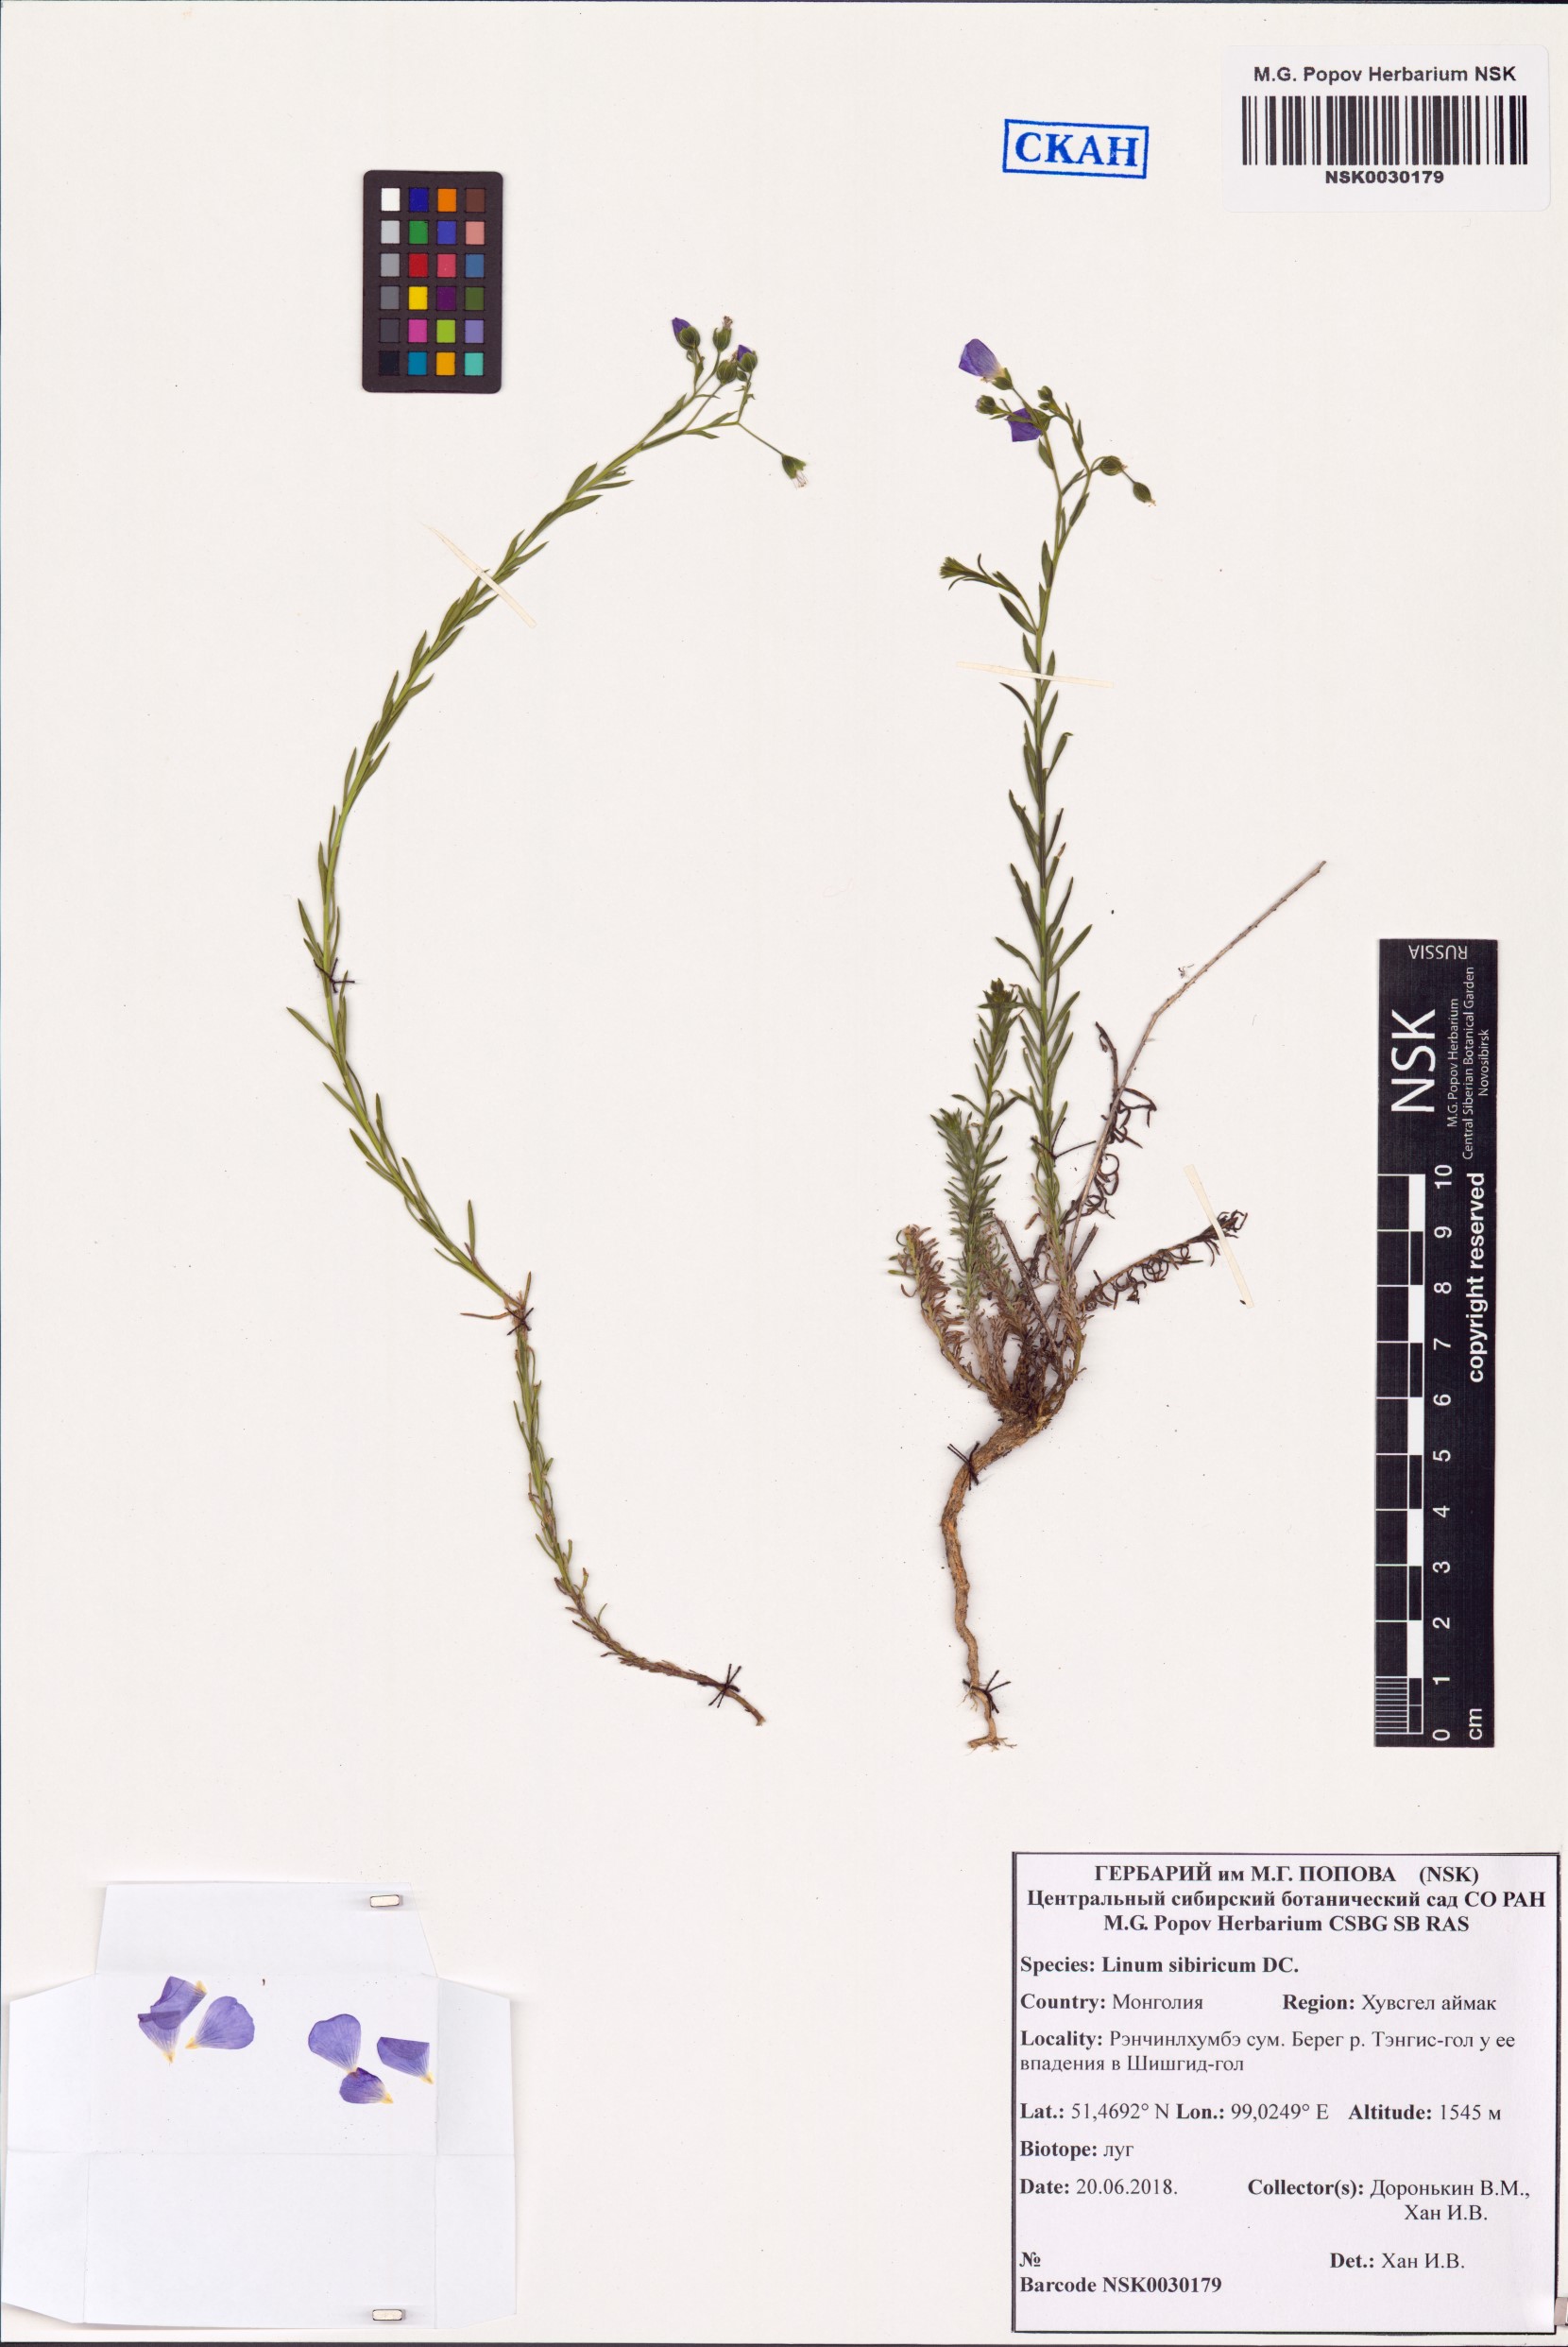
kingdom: Plantae
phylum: Tracheophyta
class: Magnoliopsida
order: Malpighiales
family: Linaceae
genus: Linum
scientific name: Linum perenne
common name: Blue flax
